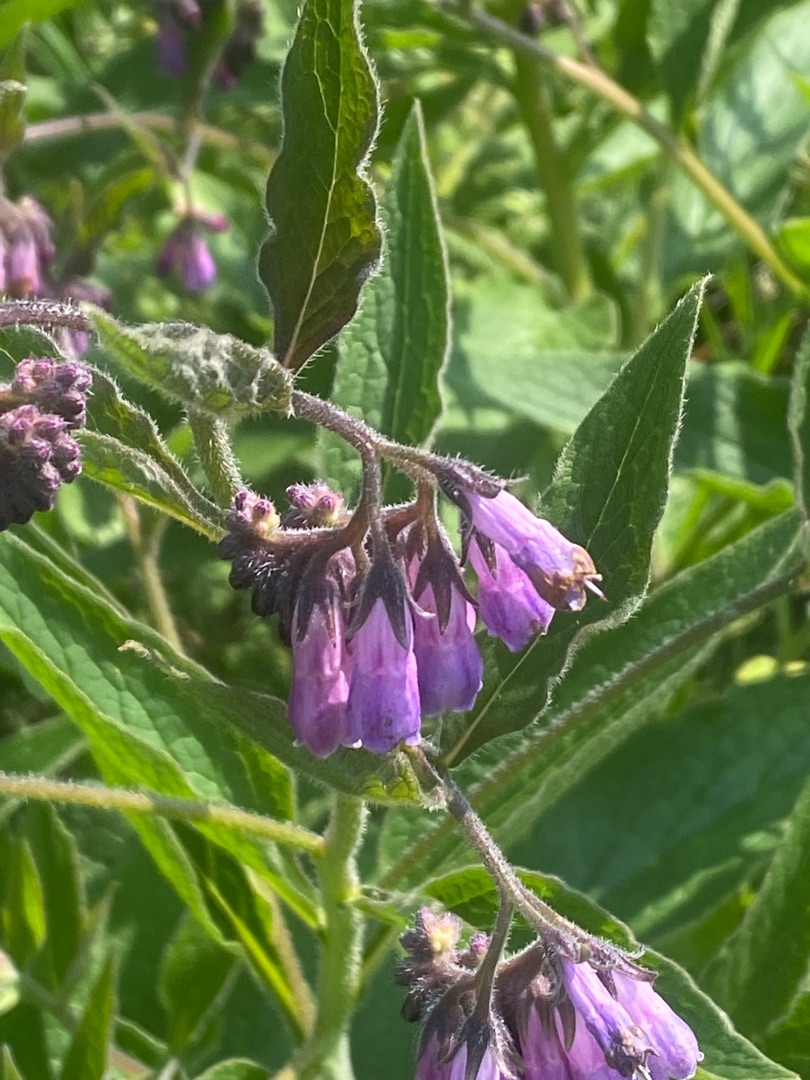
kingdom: Plantae
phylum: Tracheophyta
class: Magnoliopsida
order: Boraginales
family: Boraginaceae
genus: Symphytum
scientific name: Symphytum uplandicum
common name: Foder-kulsukker
